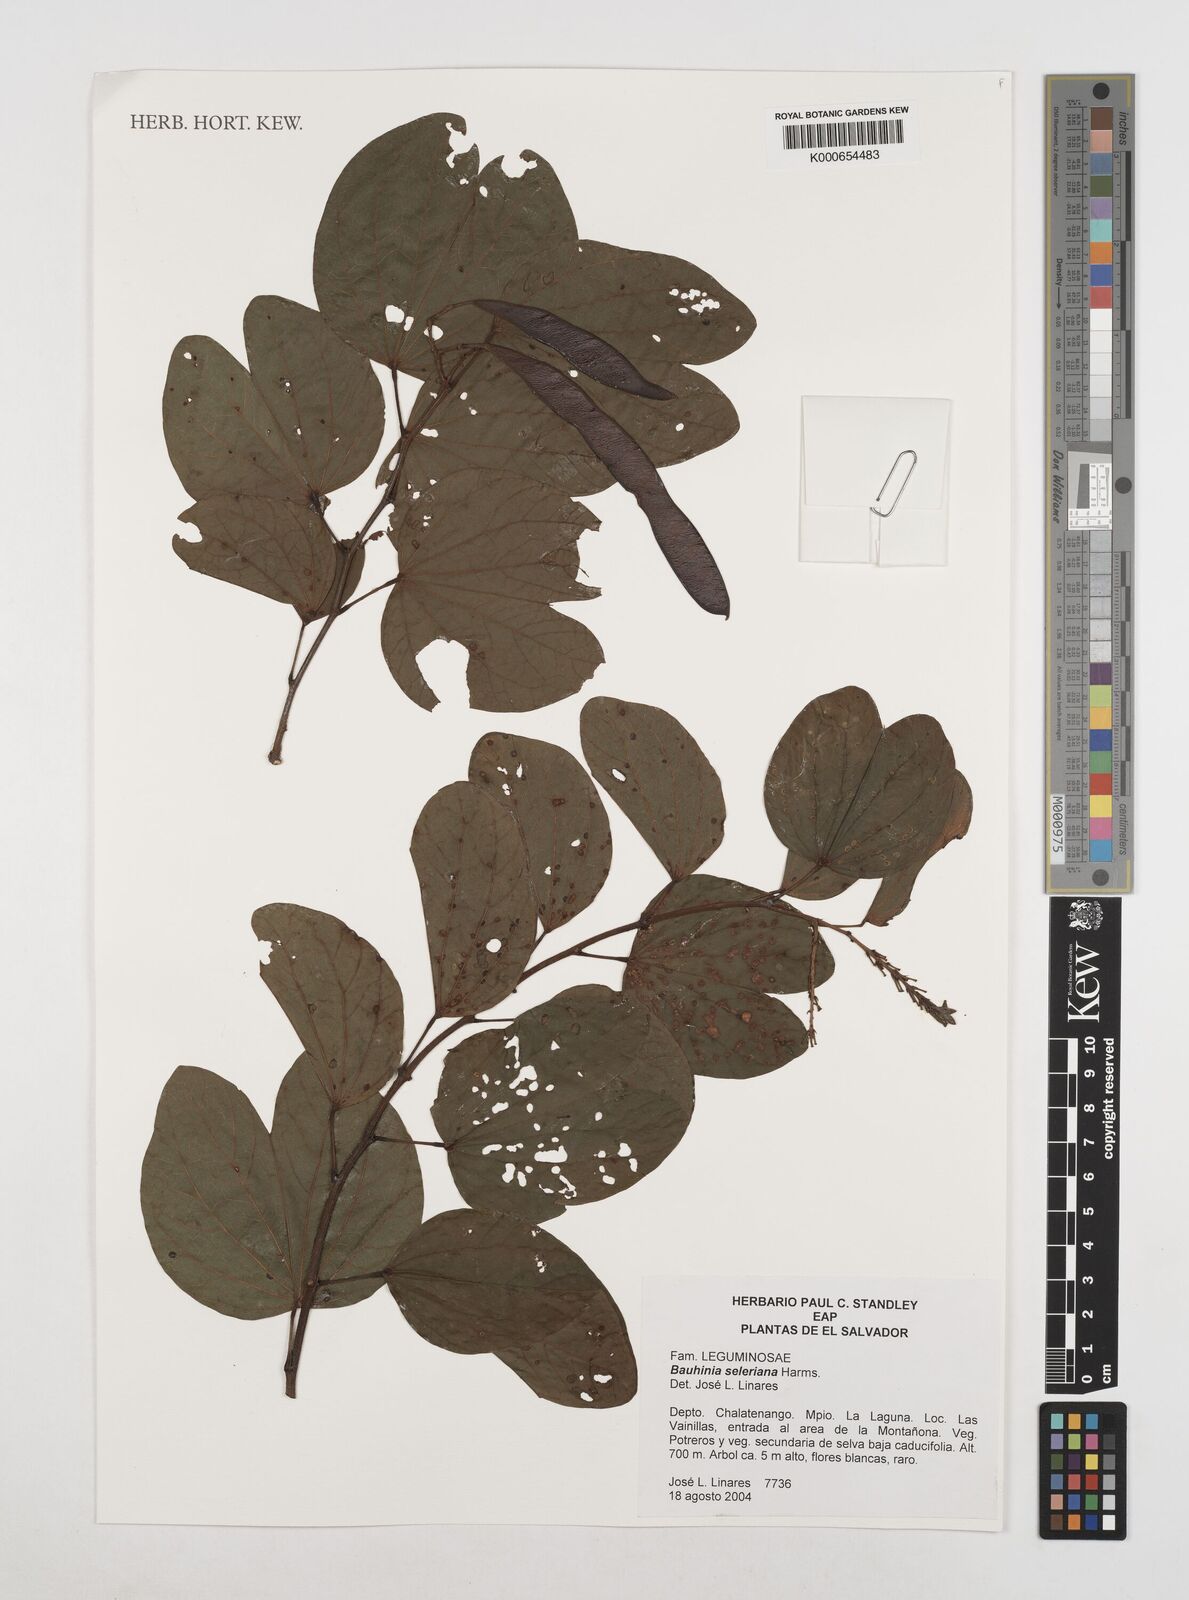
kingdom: Plantae
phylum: Tracheophyta
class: Magnoliopsida
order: Fabales
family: Fabaceae
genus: Bauhinia
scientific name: Bauhinia seleriana
